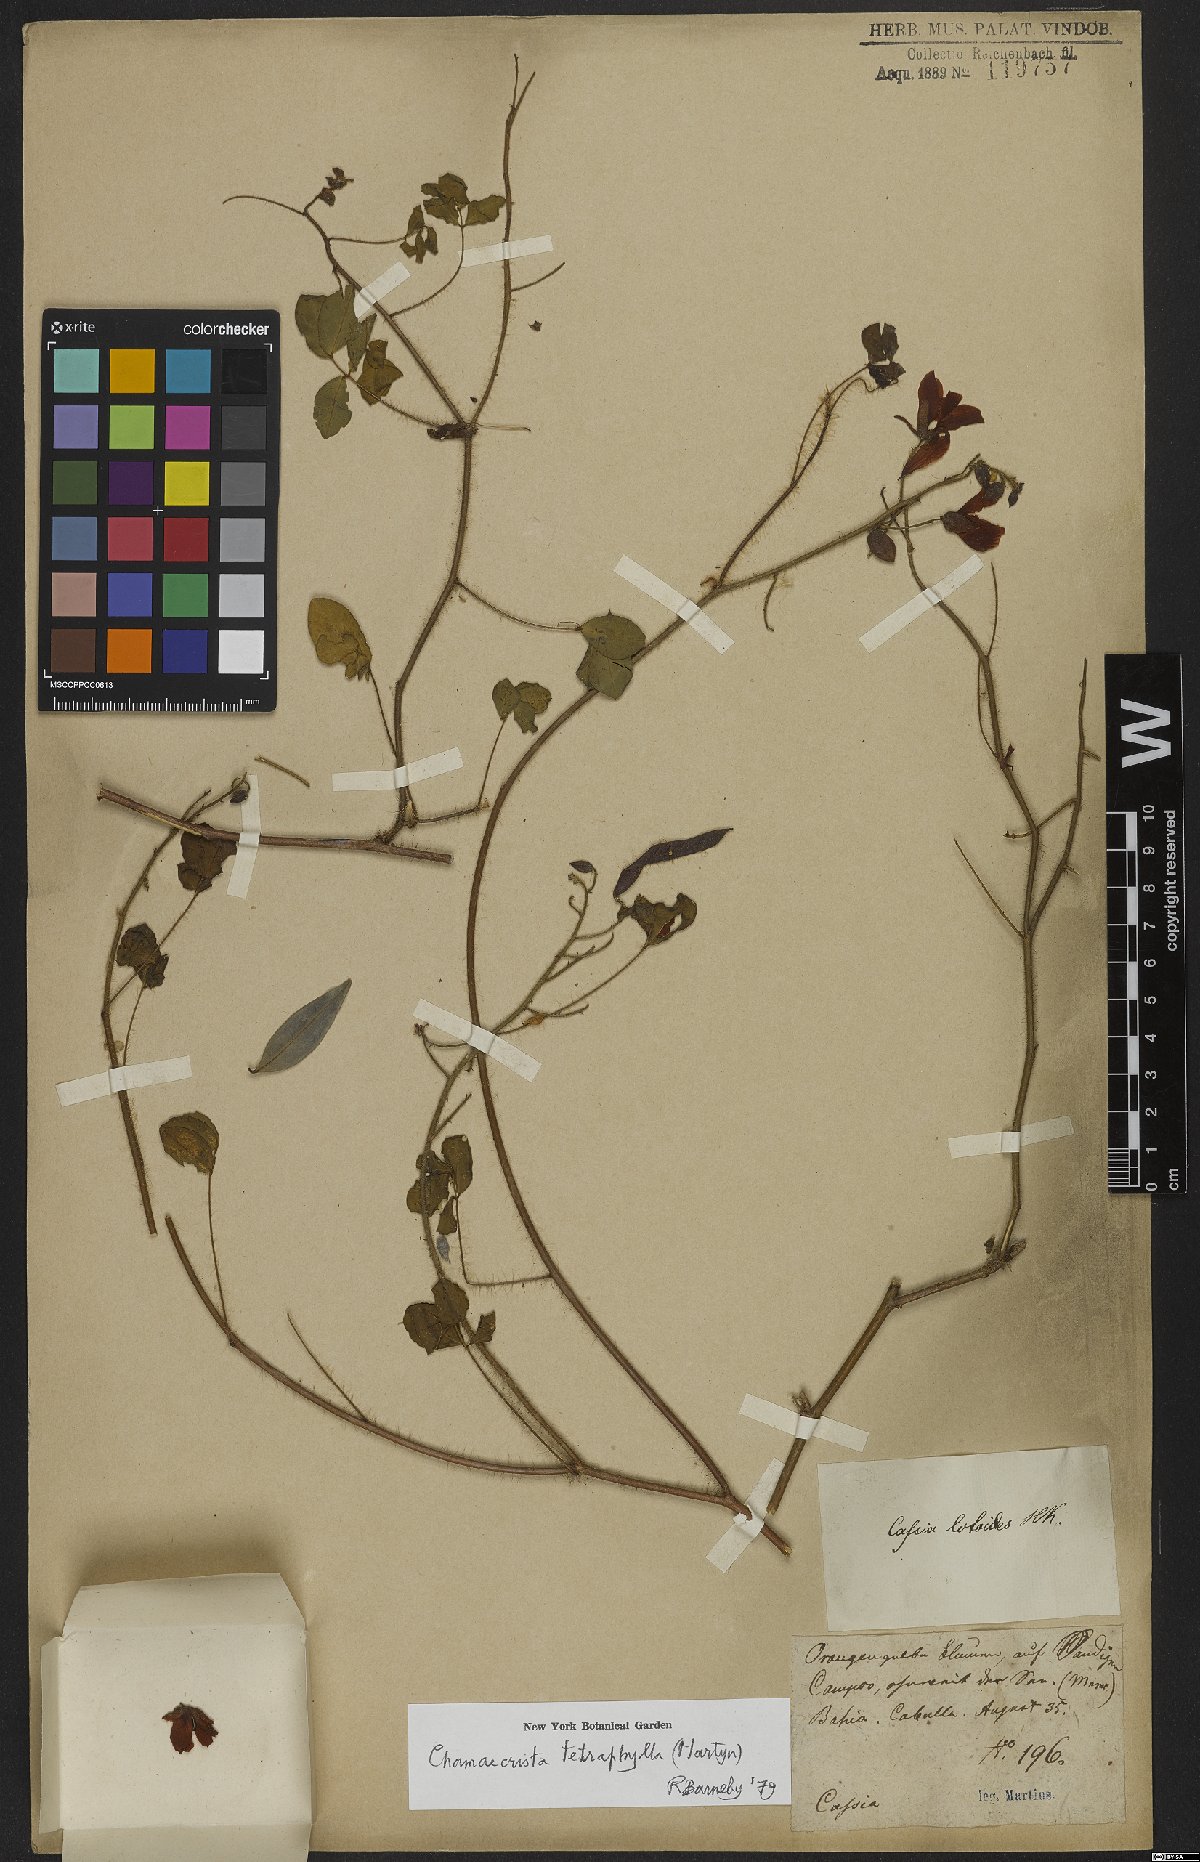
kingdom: Plantae
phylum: Tracheophyta
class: Magnoliopsida
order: Fabales
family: Fabaceae
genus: Chamaecrista
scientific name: Chamaecrista desvauxii
